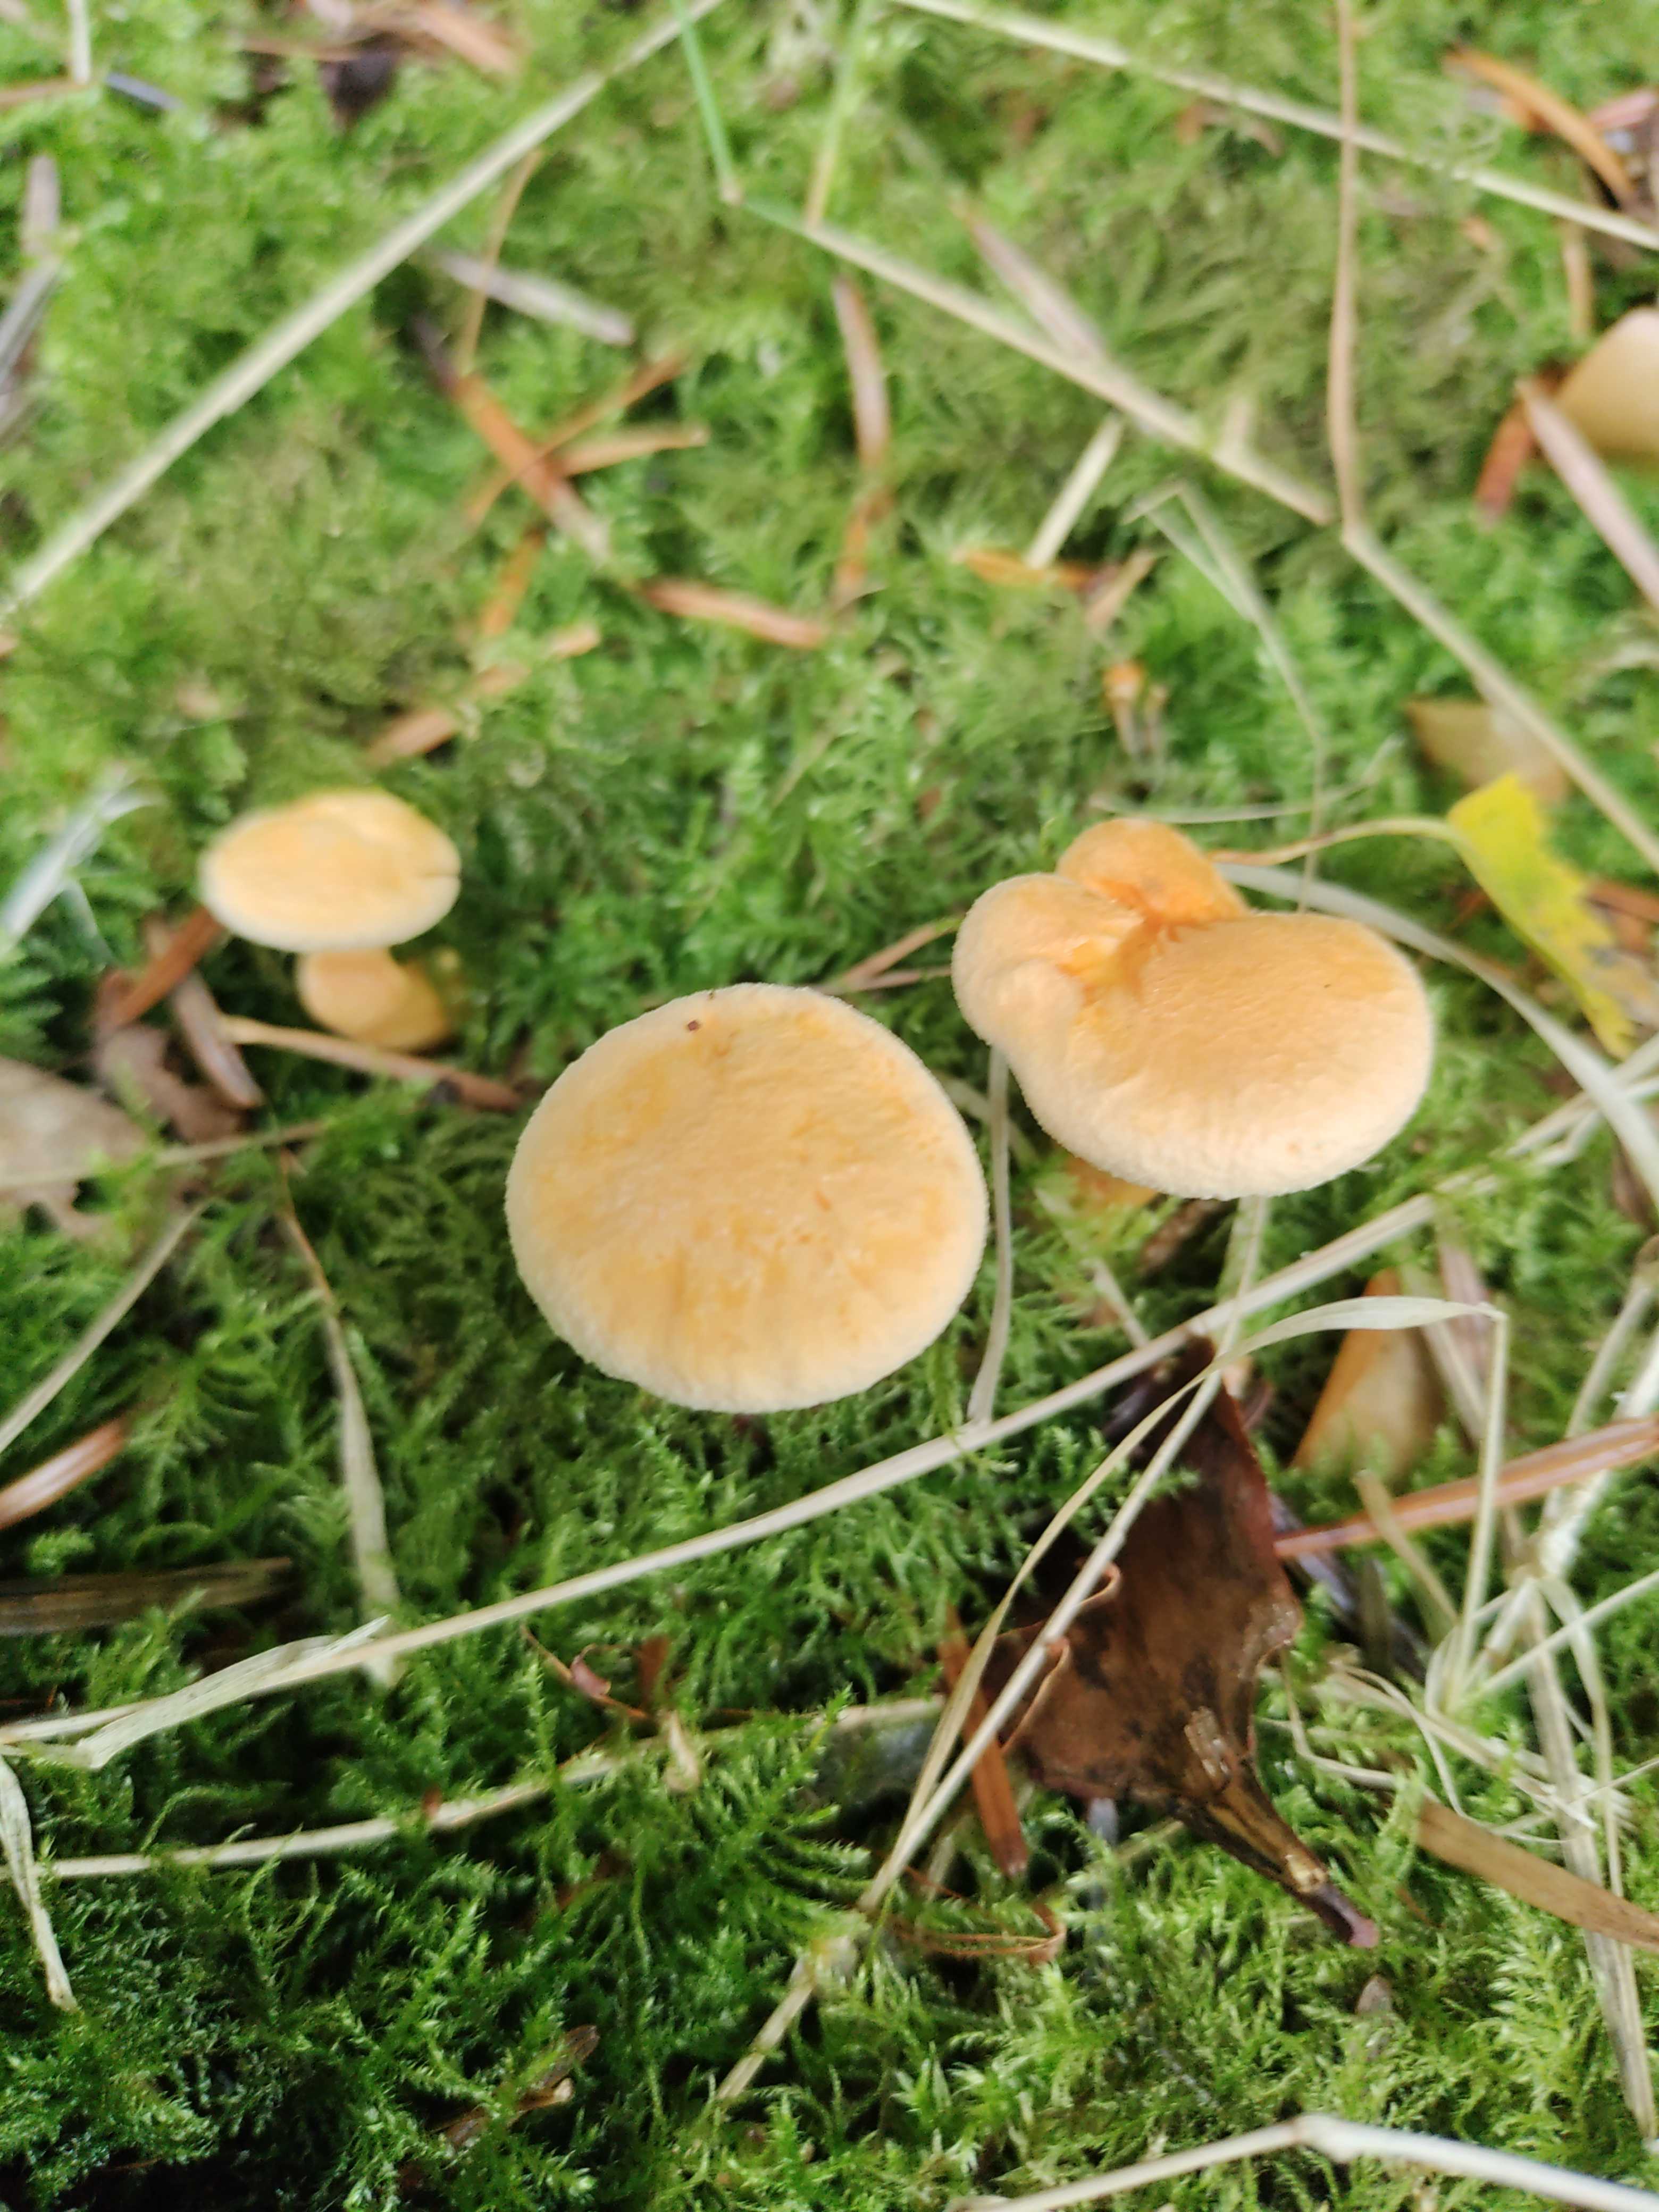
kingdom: Fungi
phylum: Basidiomycota
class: Agaricomycetes
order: Boletales
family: Hygrophoropsidaceae
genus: Hygrophoropsis
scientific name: Hygrophoropsis aurantiaca
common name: almindelig orangekantarel
